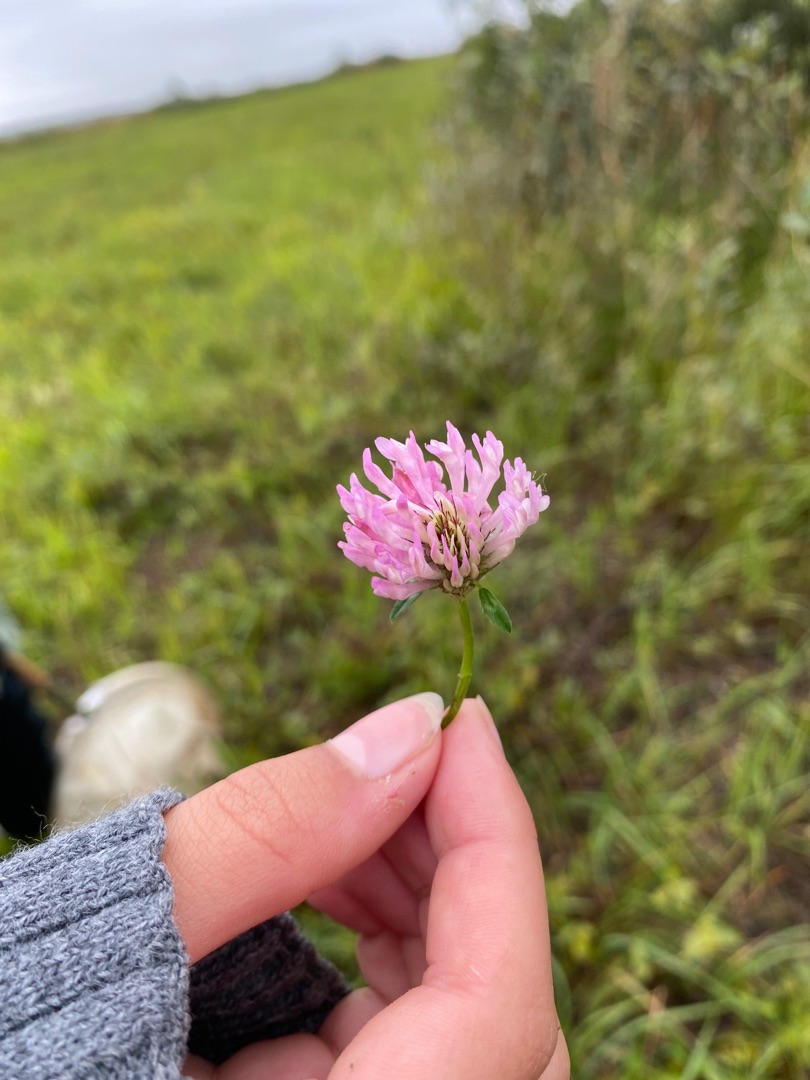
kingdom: Plantae
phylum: Tracheophyta
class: Magnoliopsida
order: Fabales
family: Fabaceae
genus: Trifolium
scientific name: Trifolium pratense
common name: Rød-kløver
